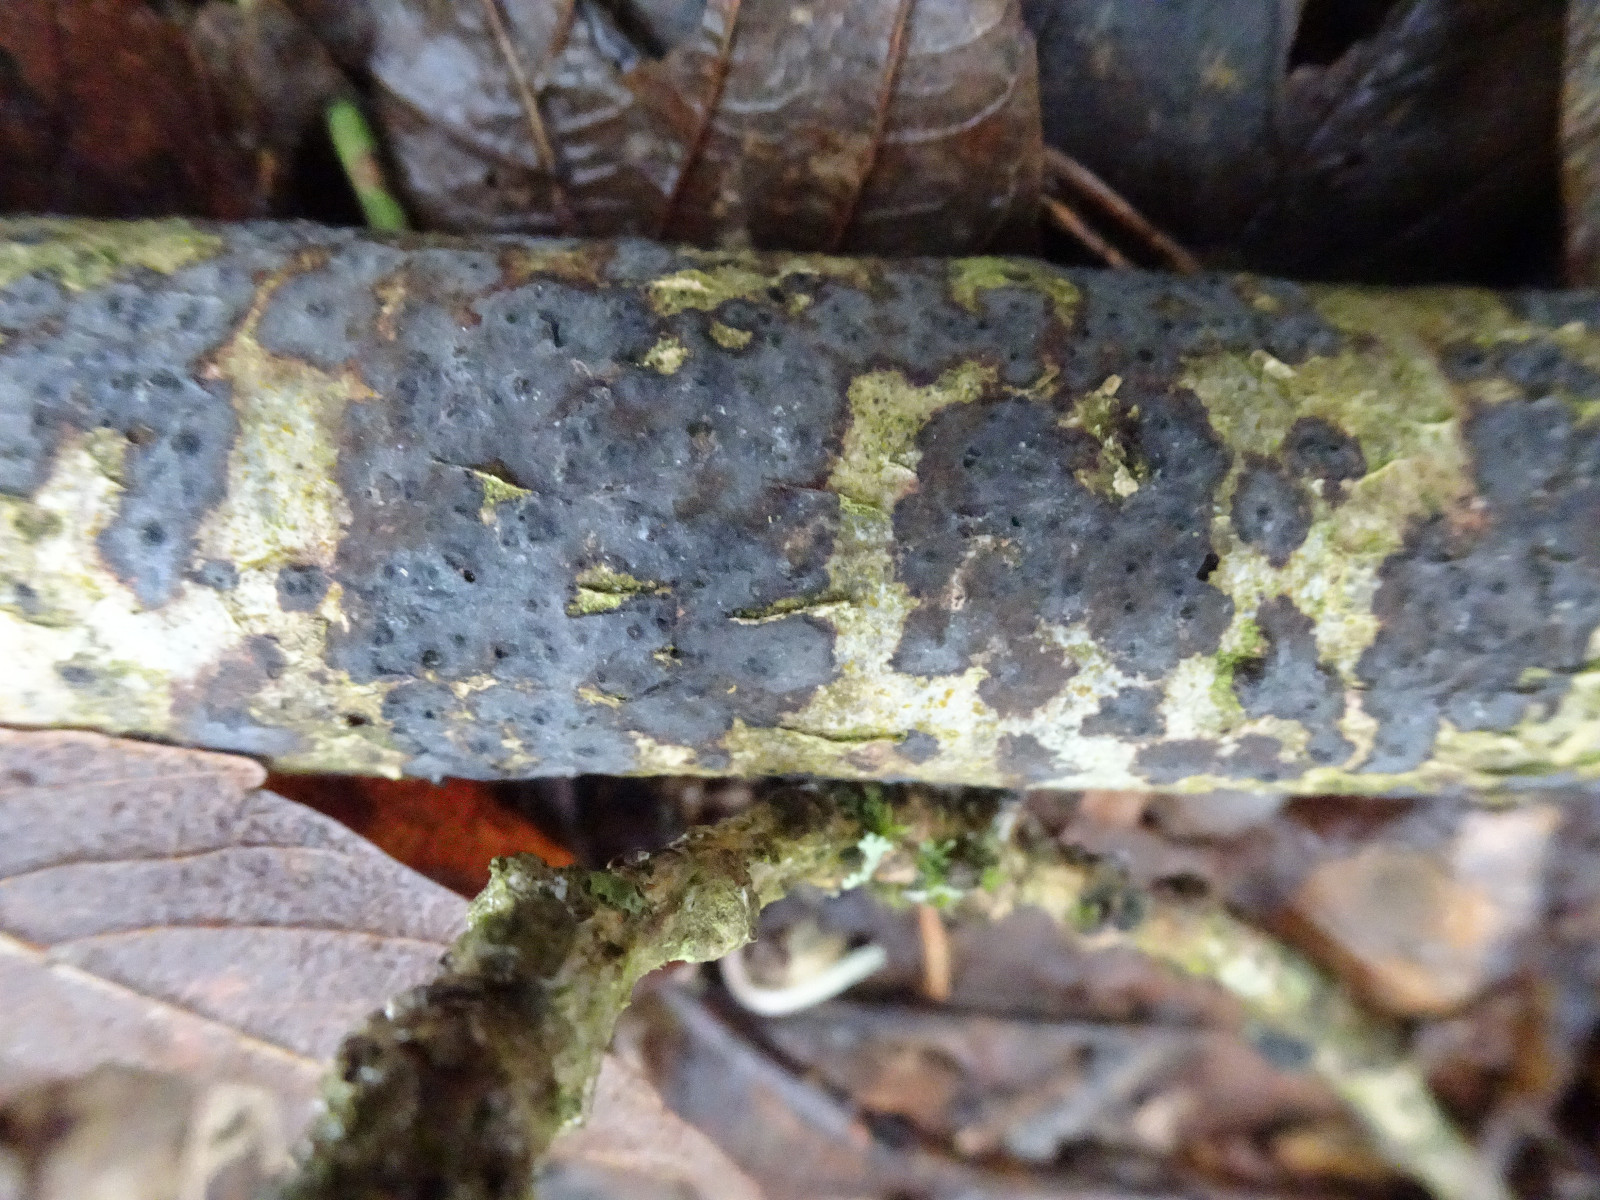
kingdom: Fungi
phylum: Basidiomycota
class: Agaricomycetes
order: Russulales
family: Peniophoraceae
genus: Peniophora
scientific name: Peniophora limitata
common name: mørkrandet voksskind
